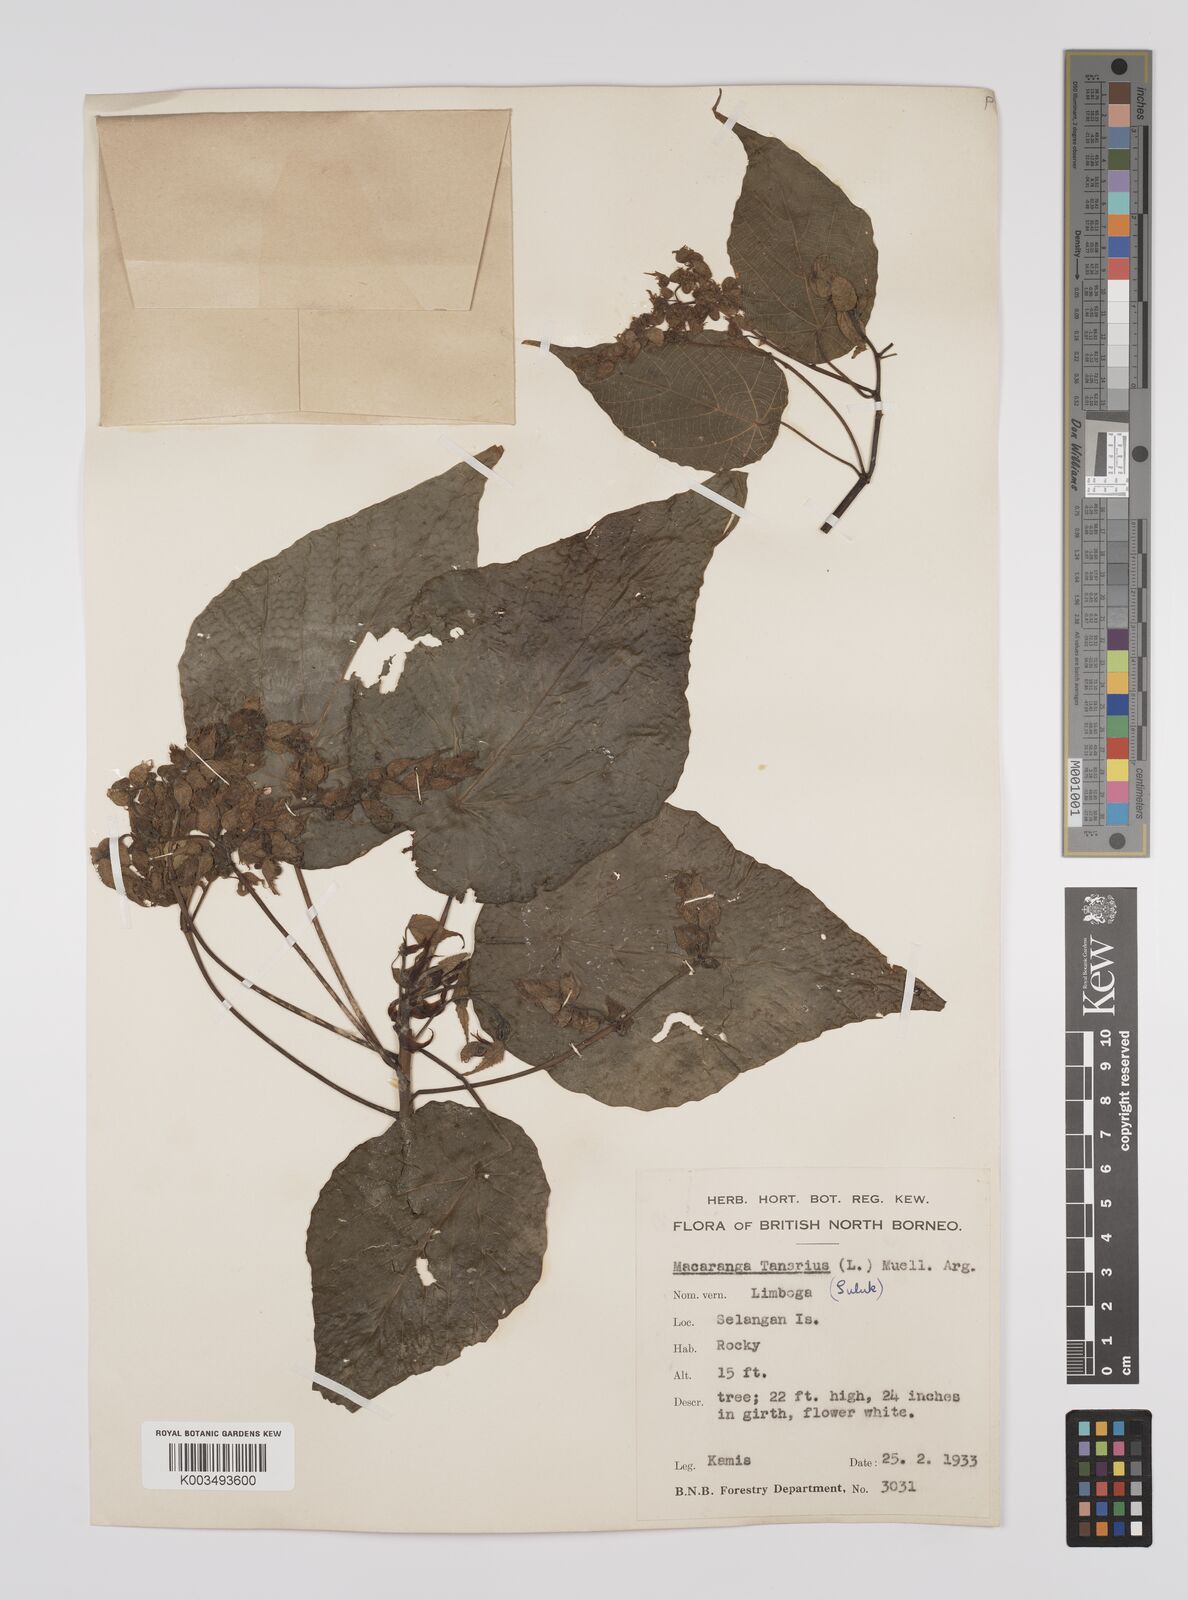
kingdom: Plantae
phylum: Tracheophyta
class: Magnoliopsida
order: Malpighiales
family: Euphorbiaceae
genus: Macaranga
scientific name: Macaranga tanarius
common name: Parasol leaf tree
